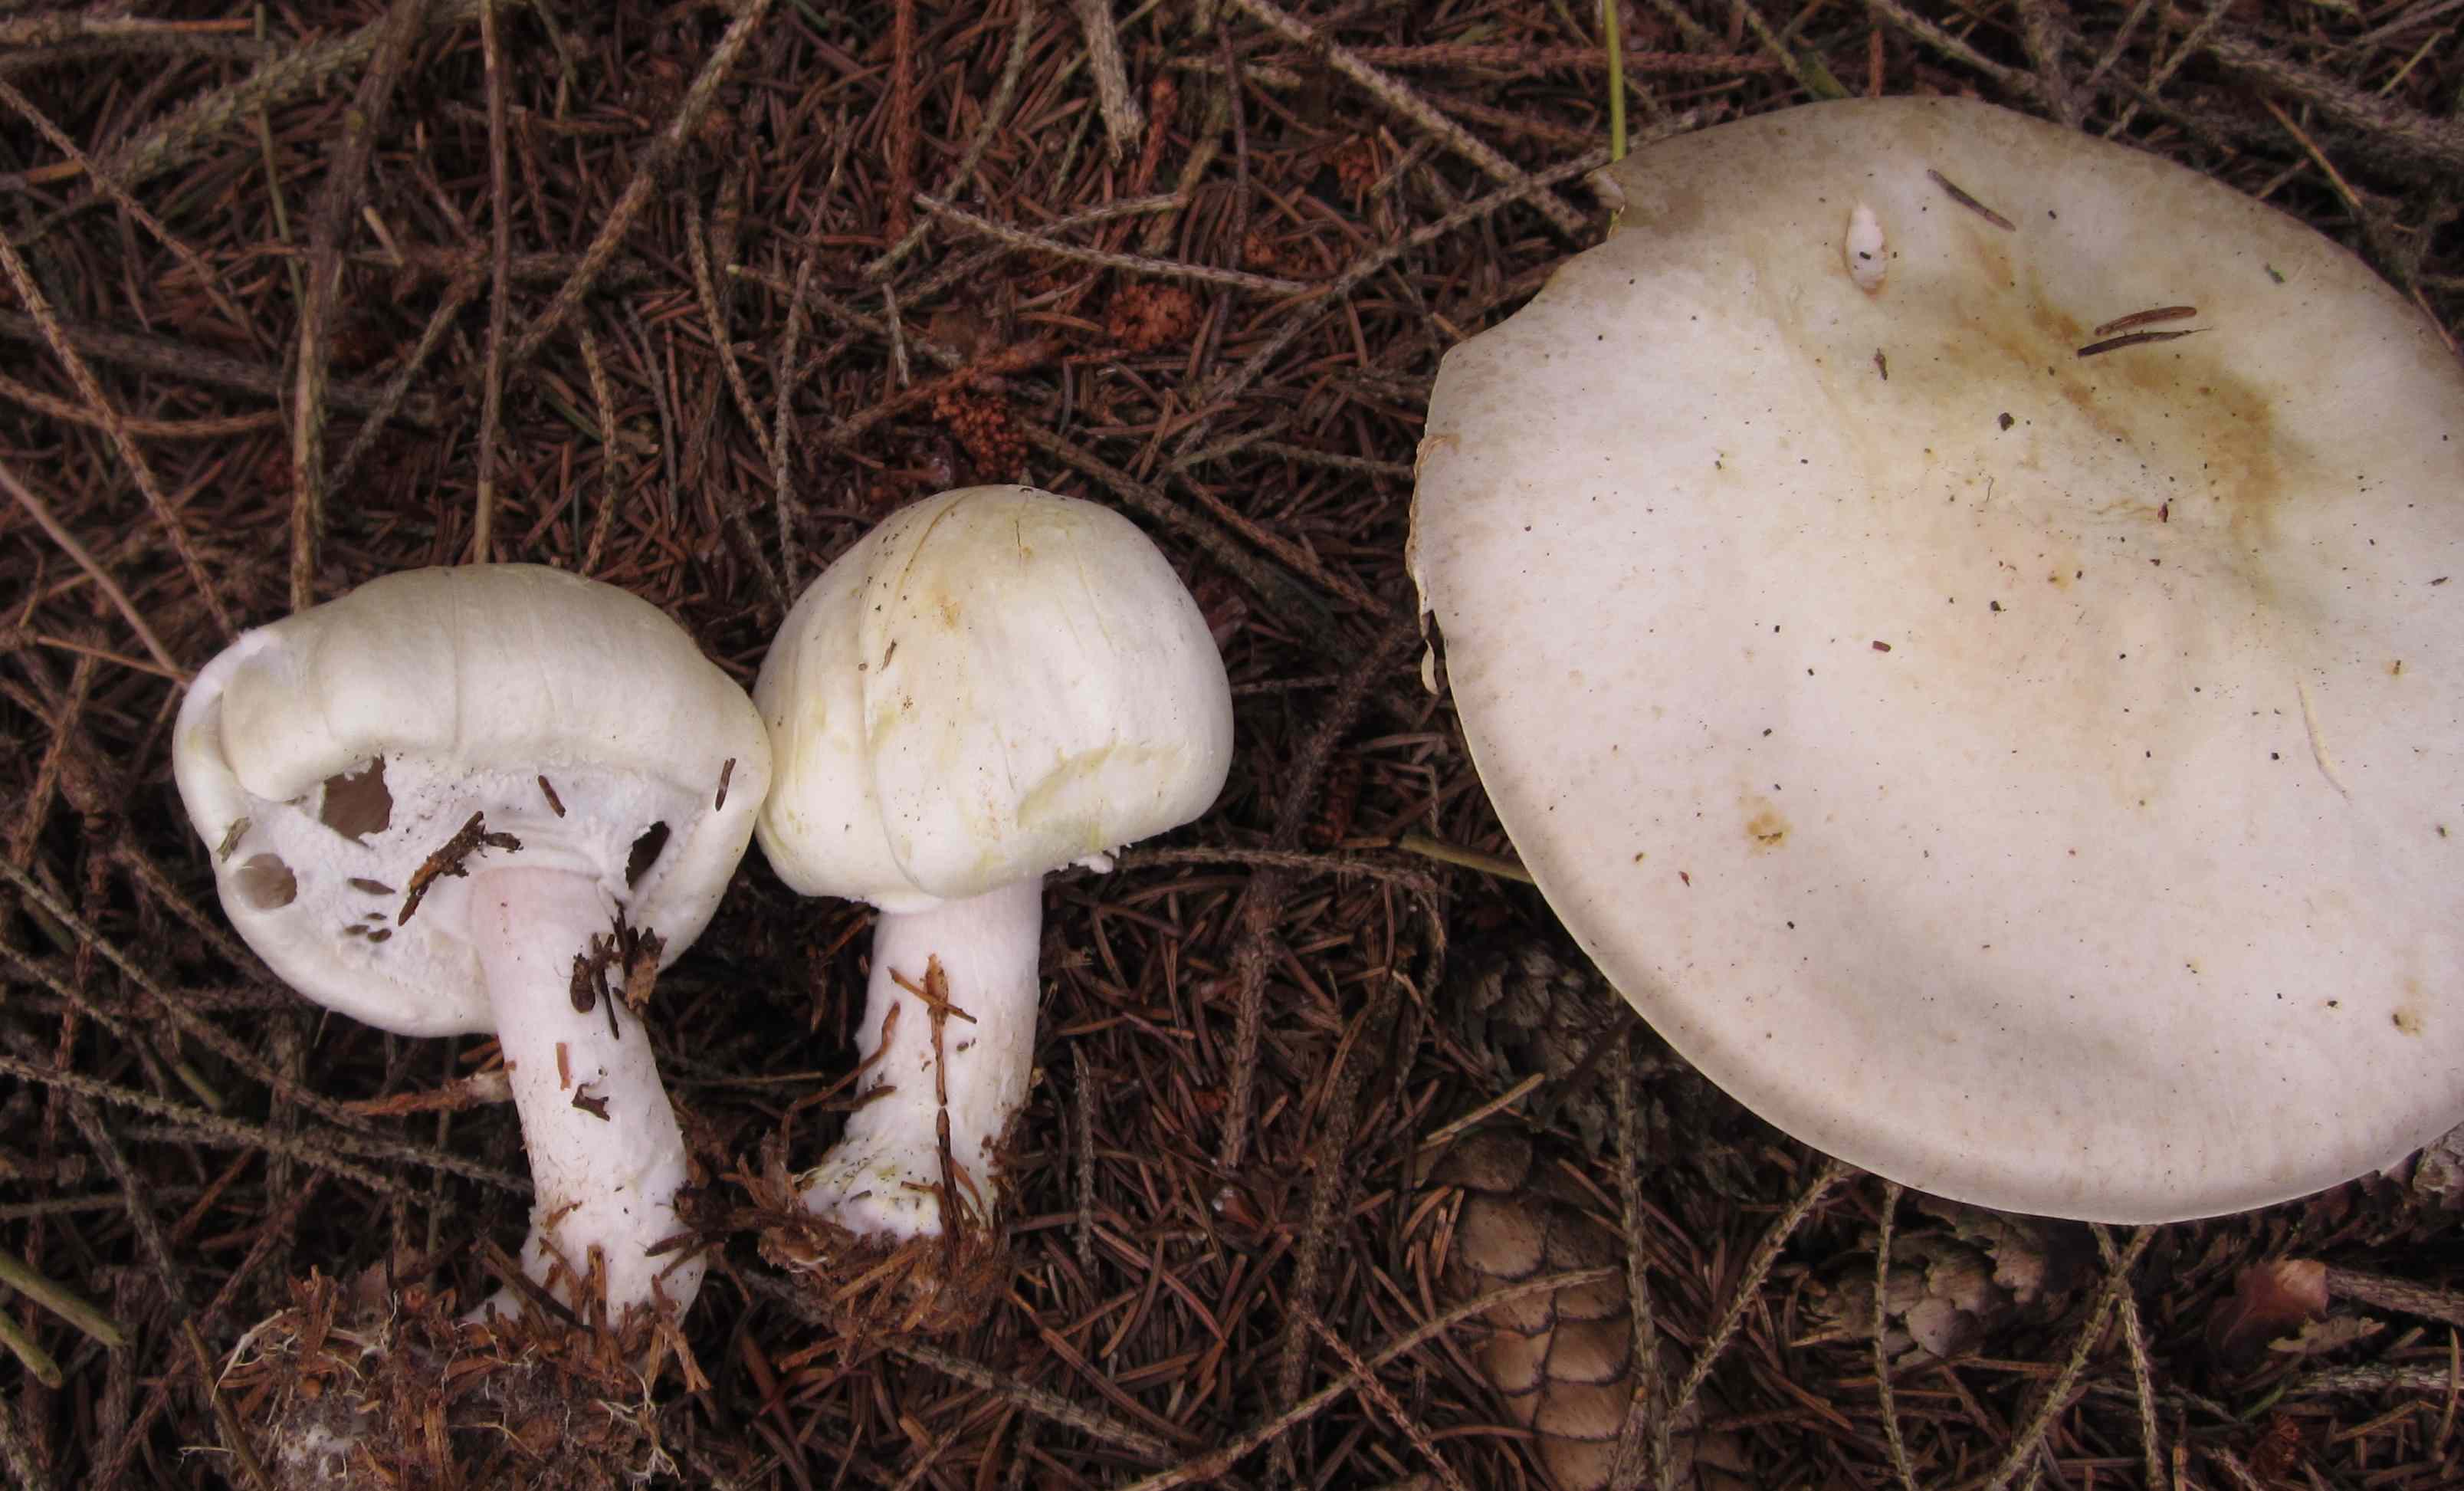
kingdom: Fungi
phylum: Basidiomycota
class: Agaricomycetes
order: Agaricales
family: Agaricaceae
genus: Agaricus
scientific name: Agaricus sylvicola
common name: skiveknoldet champignon
